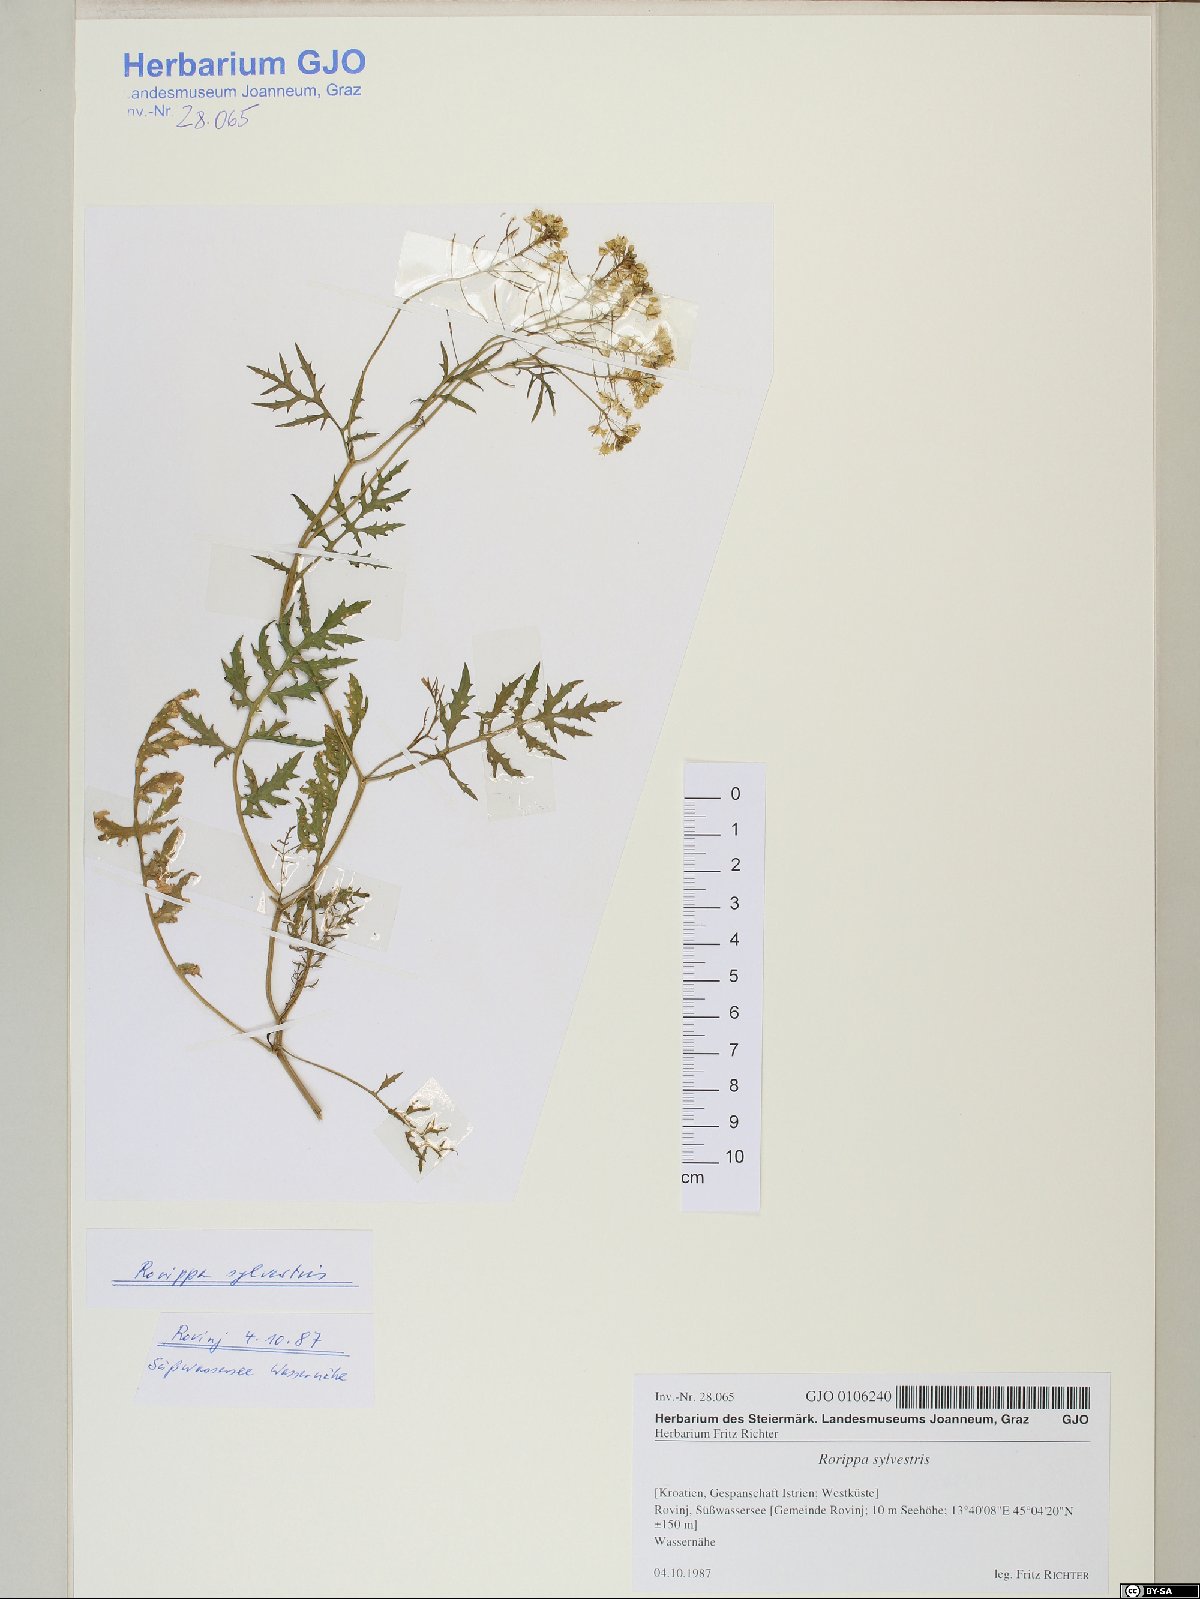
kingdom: Plantae
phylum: Tracheophyta
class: Magnoliopsida
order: Brassicales
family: Brassicaceae
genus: Rorippa
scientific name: Rorippa sylvestris
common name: Creeping yellowcress
